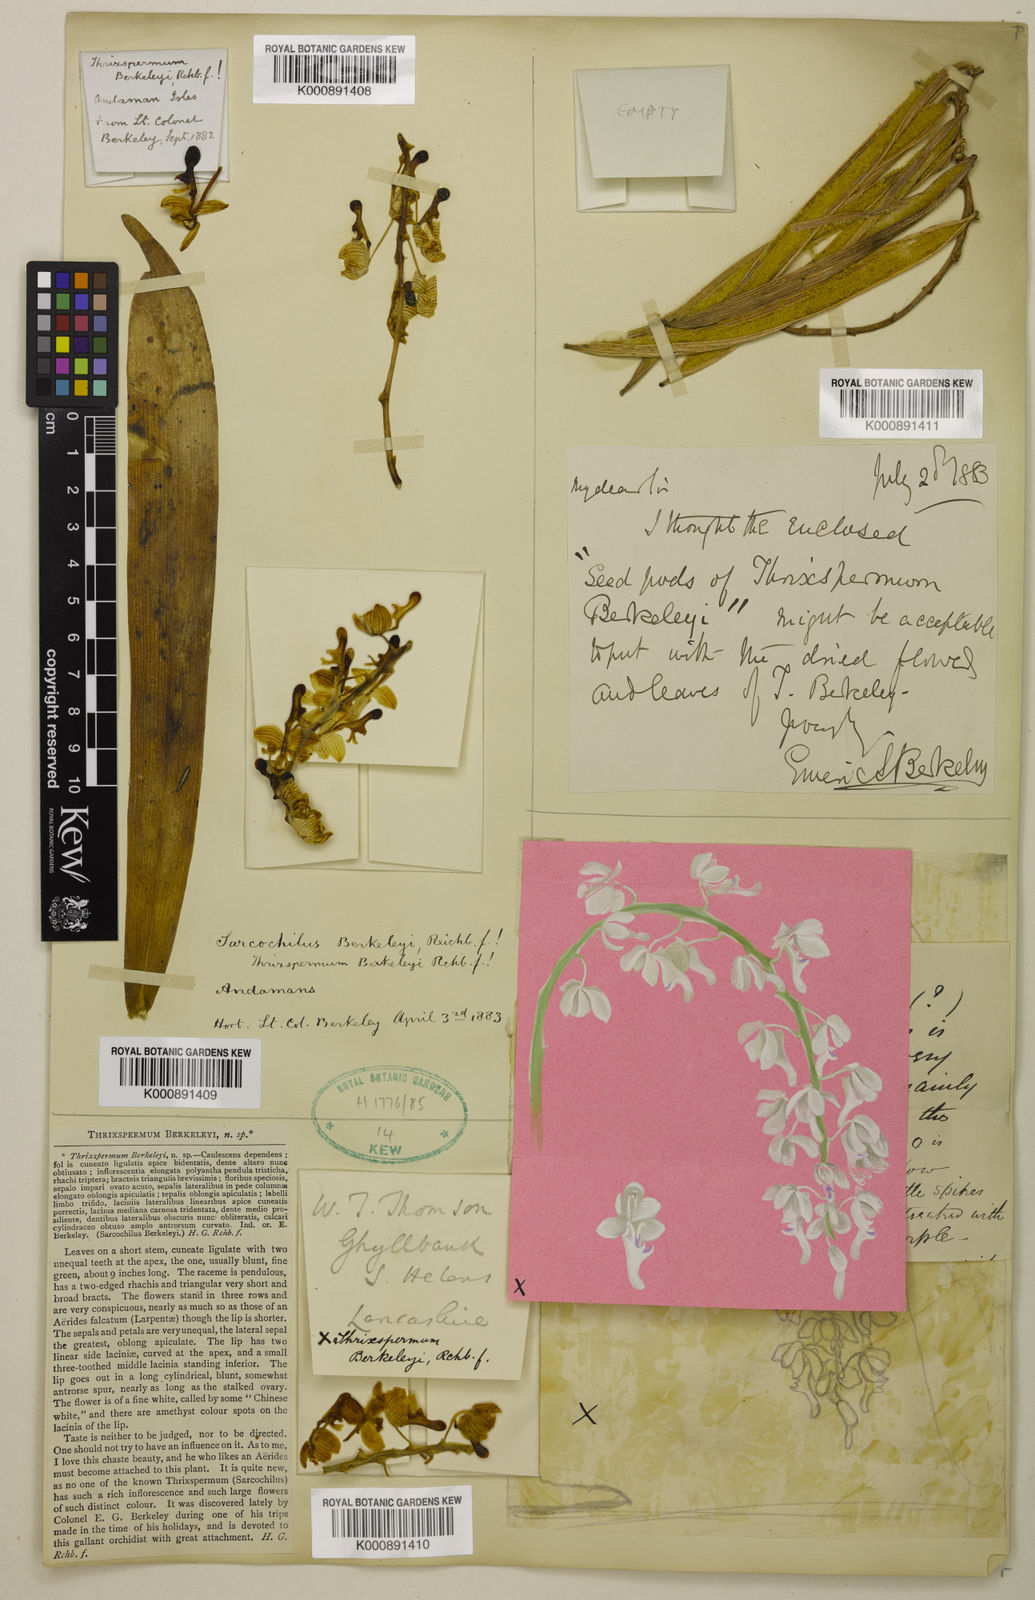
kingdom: Plantae
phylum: Tracheophyta
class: Liliopsida
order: Asparagales
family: Orchidaceae
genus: Macropodanthus
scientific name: Macropodanthus berkeleyi
